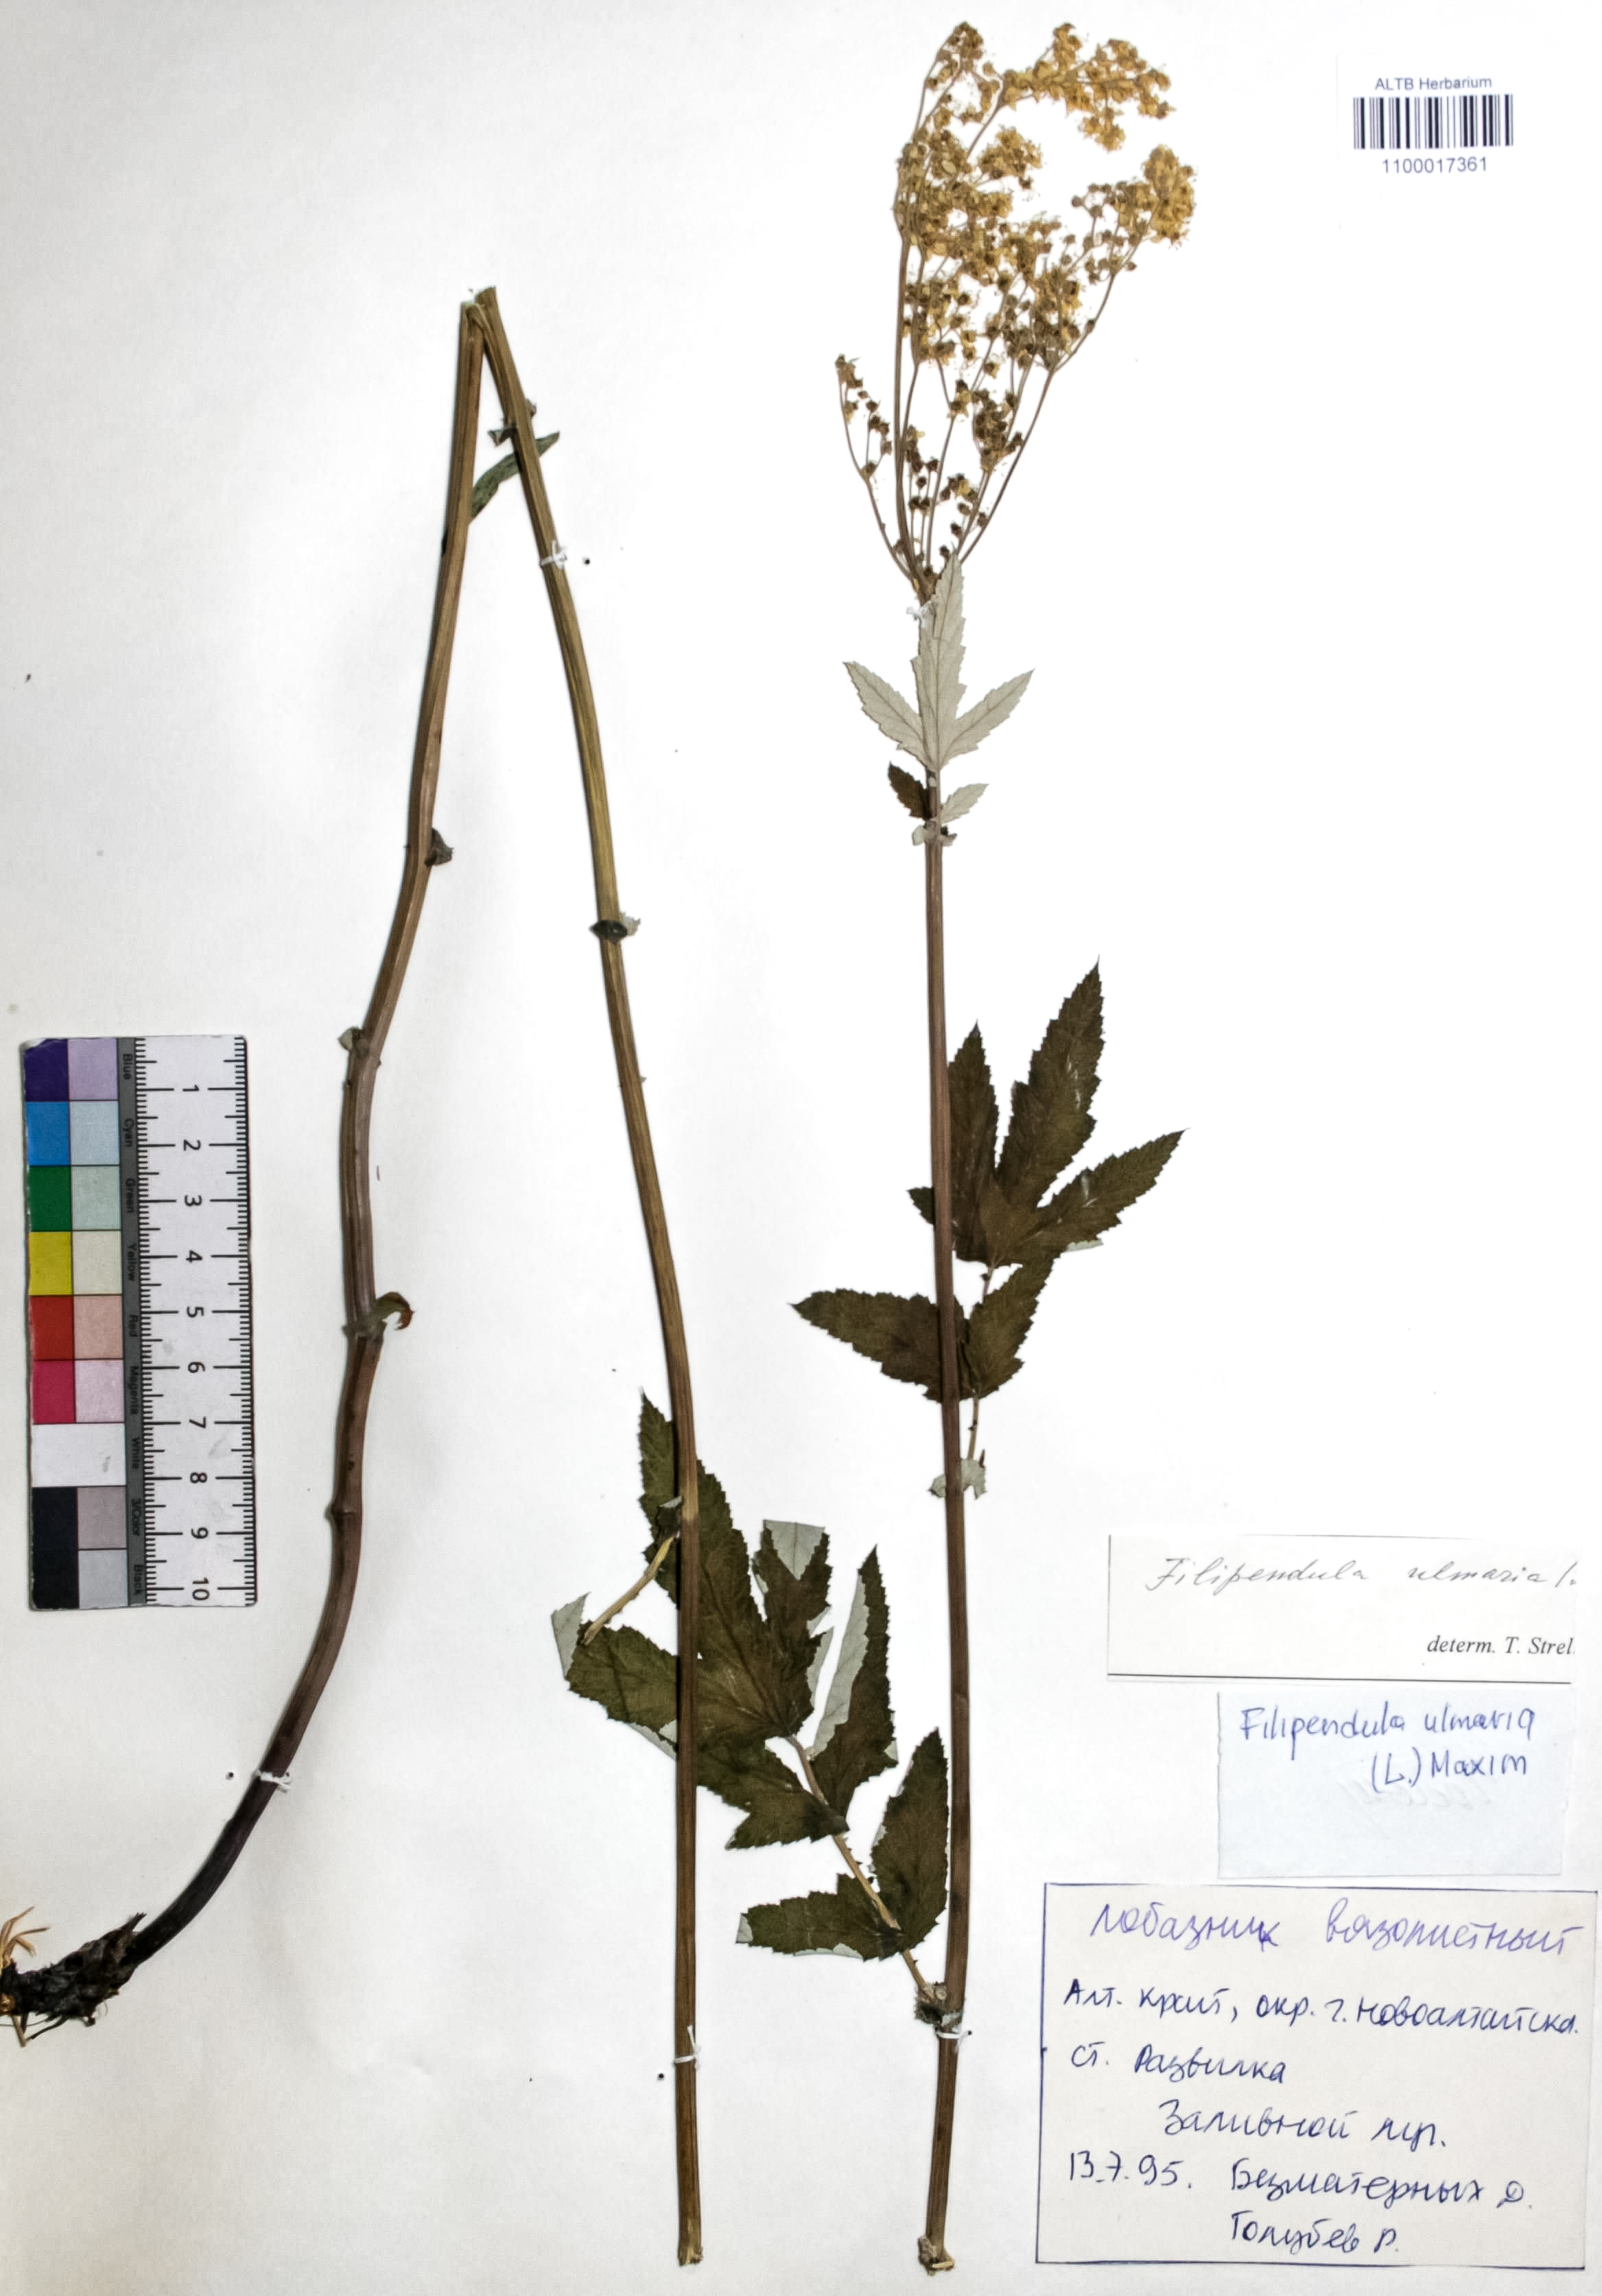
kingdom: Plantae
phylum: Tracheophyta
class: Magnoliopsida
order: Rosales
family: Rosaceae
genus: Filipendula
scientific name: Filipendula ulmaria
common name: Meadowsweet
